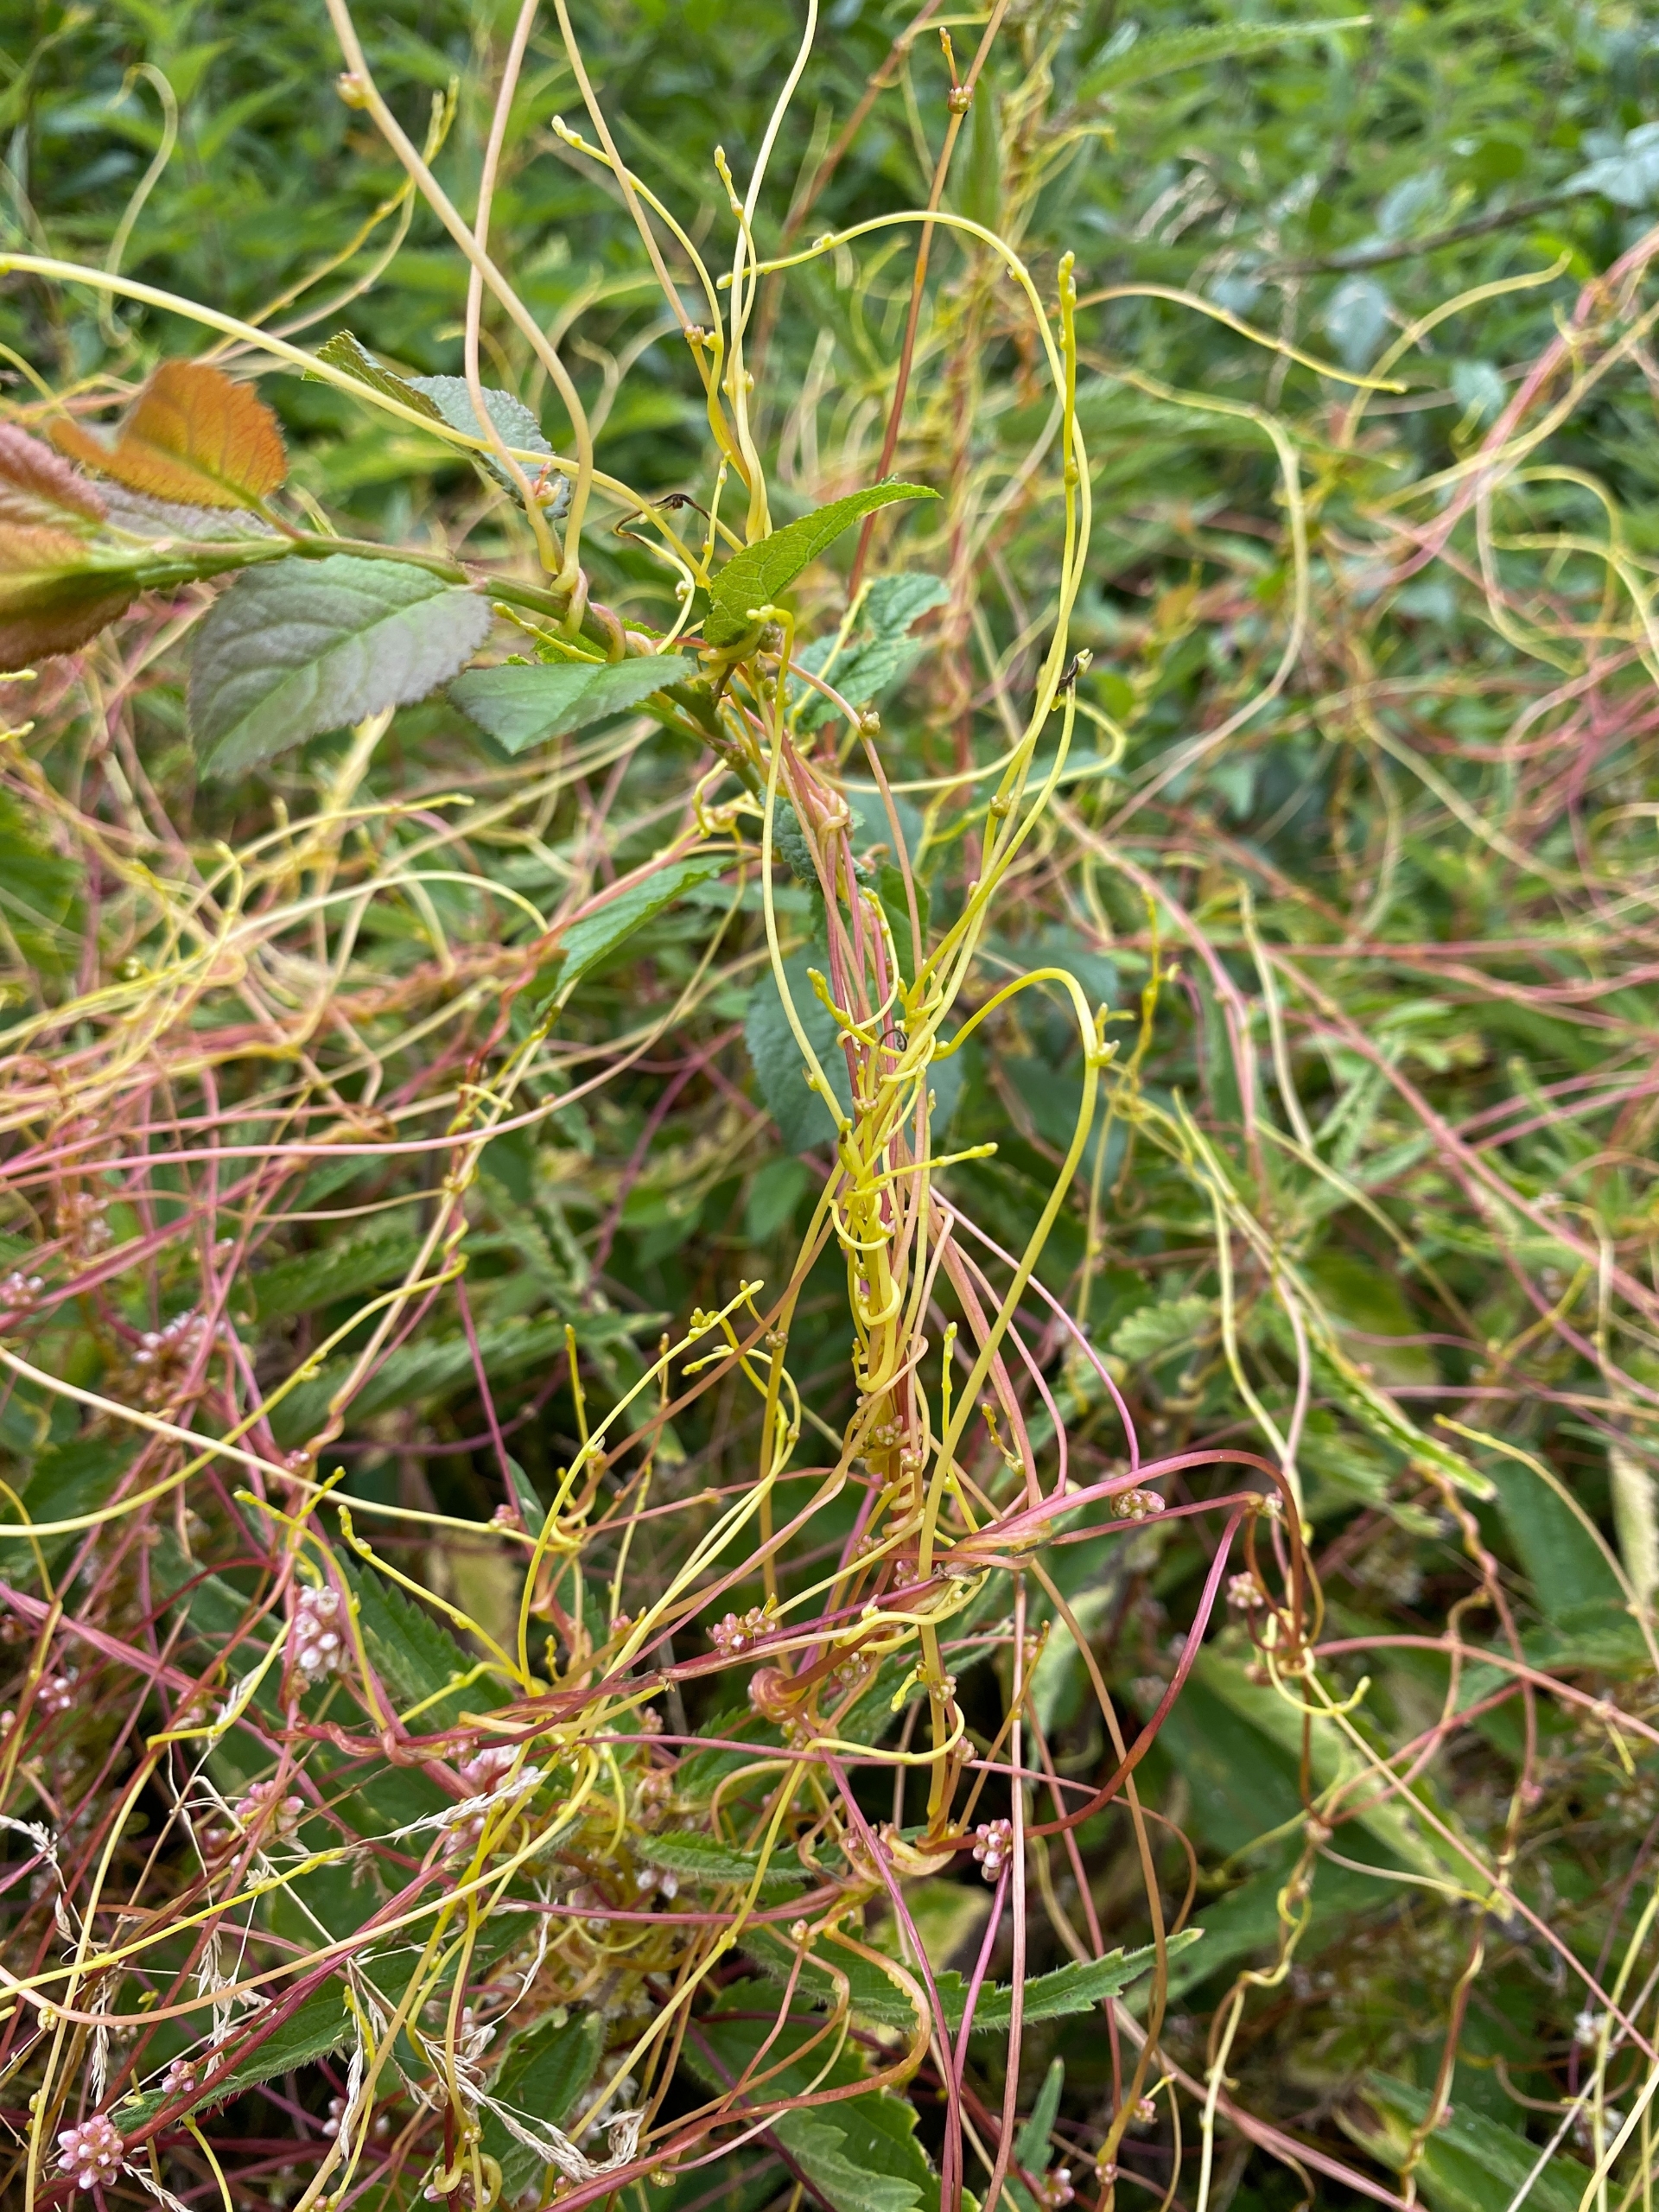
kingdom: Plantae
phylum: Tracheophyta
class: Magnoliopsida
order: Solanales
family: Convolvulaceae
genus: Cuscuta
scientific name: Cuscuta europaea
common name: Nælde-silke
